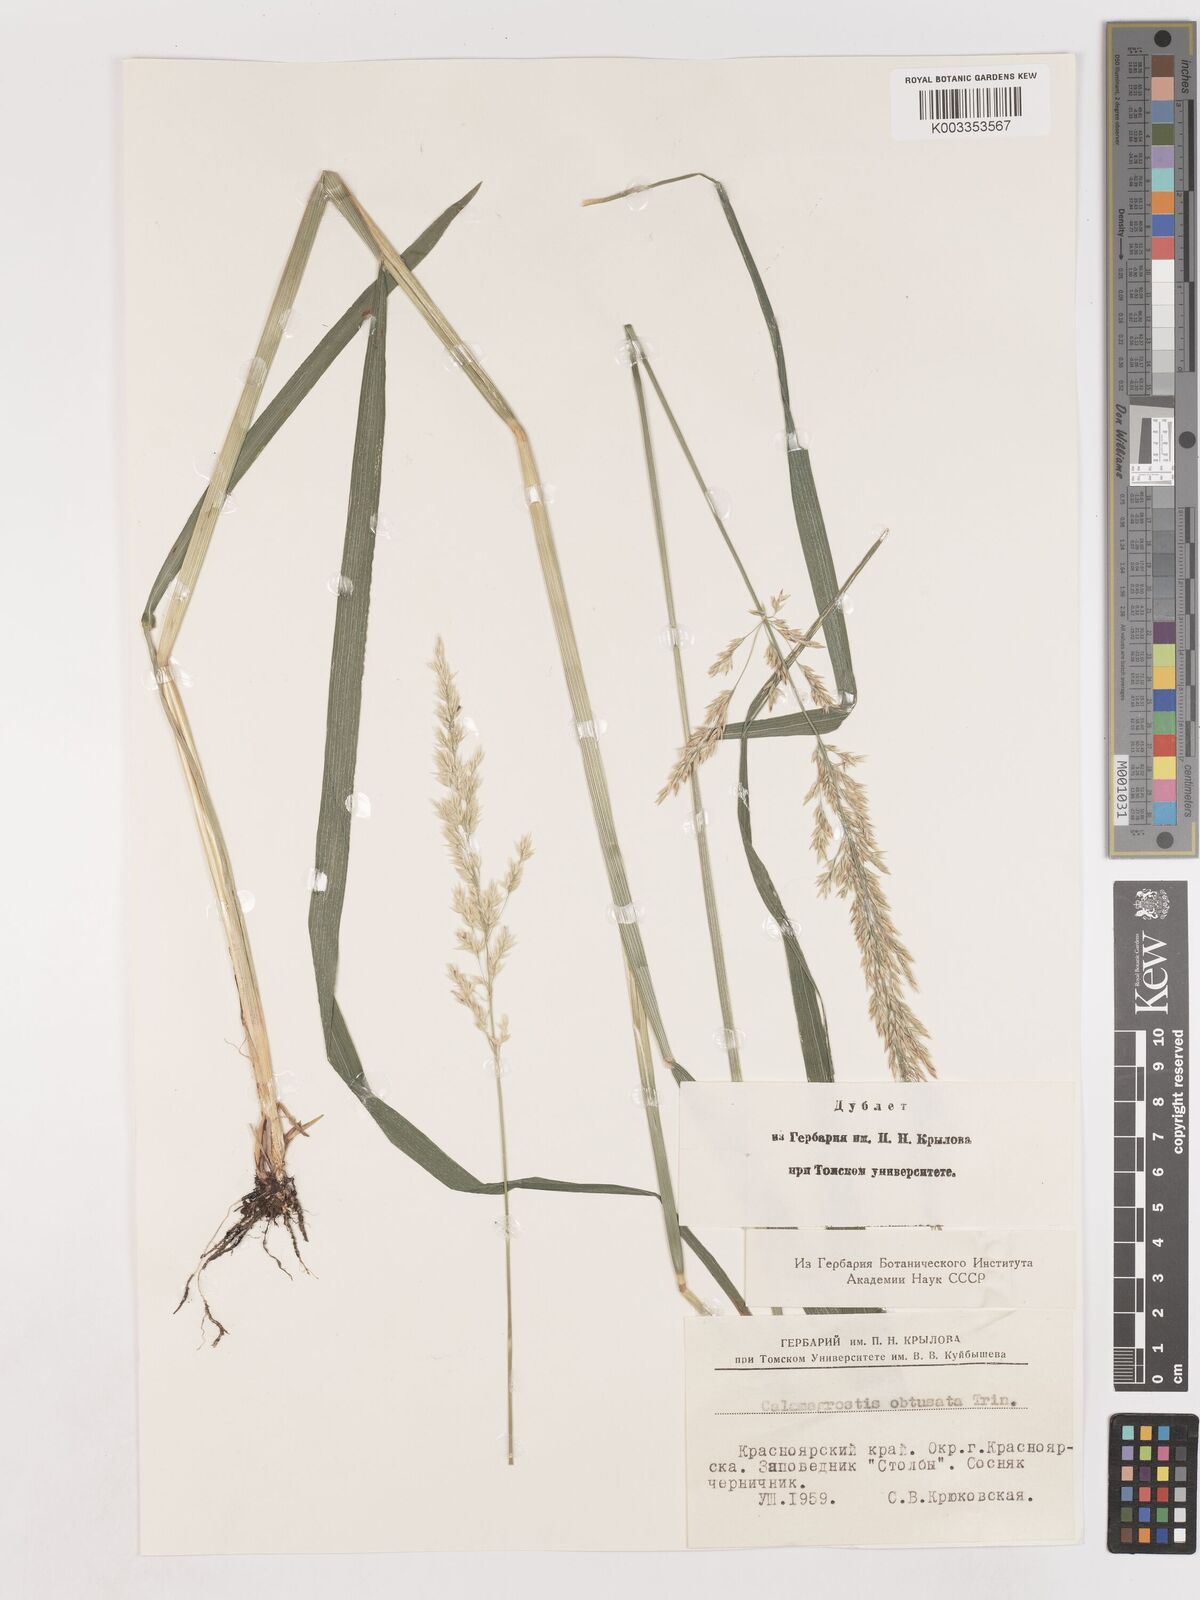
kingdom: Plantae
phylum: Tracheophyta
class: Liliopsida
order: Poales
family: Poaceae
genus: Cinnagrostis
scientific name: Cinnagrostis spicigera
